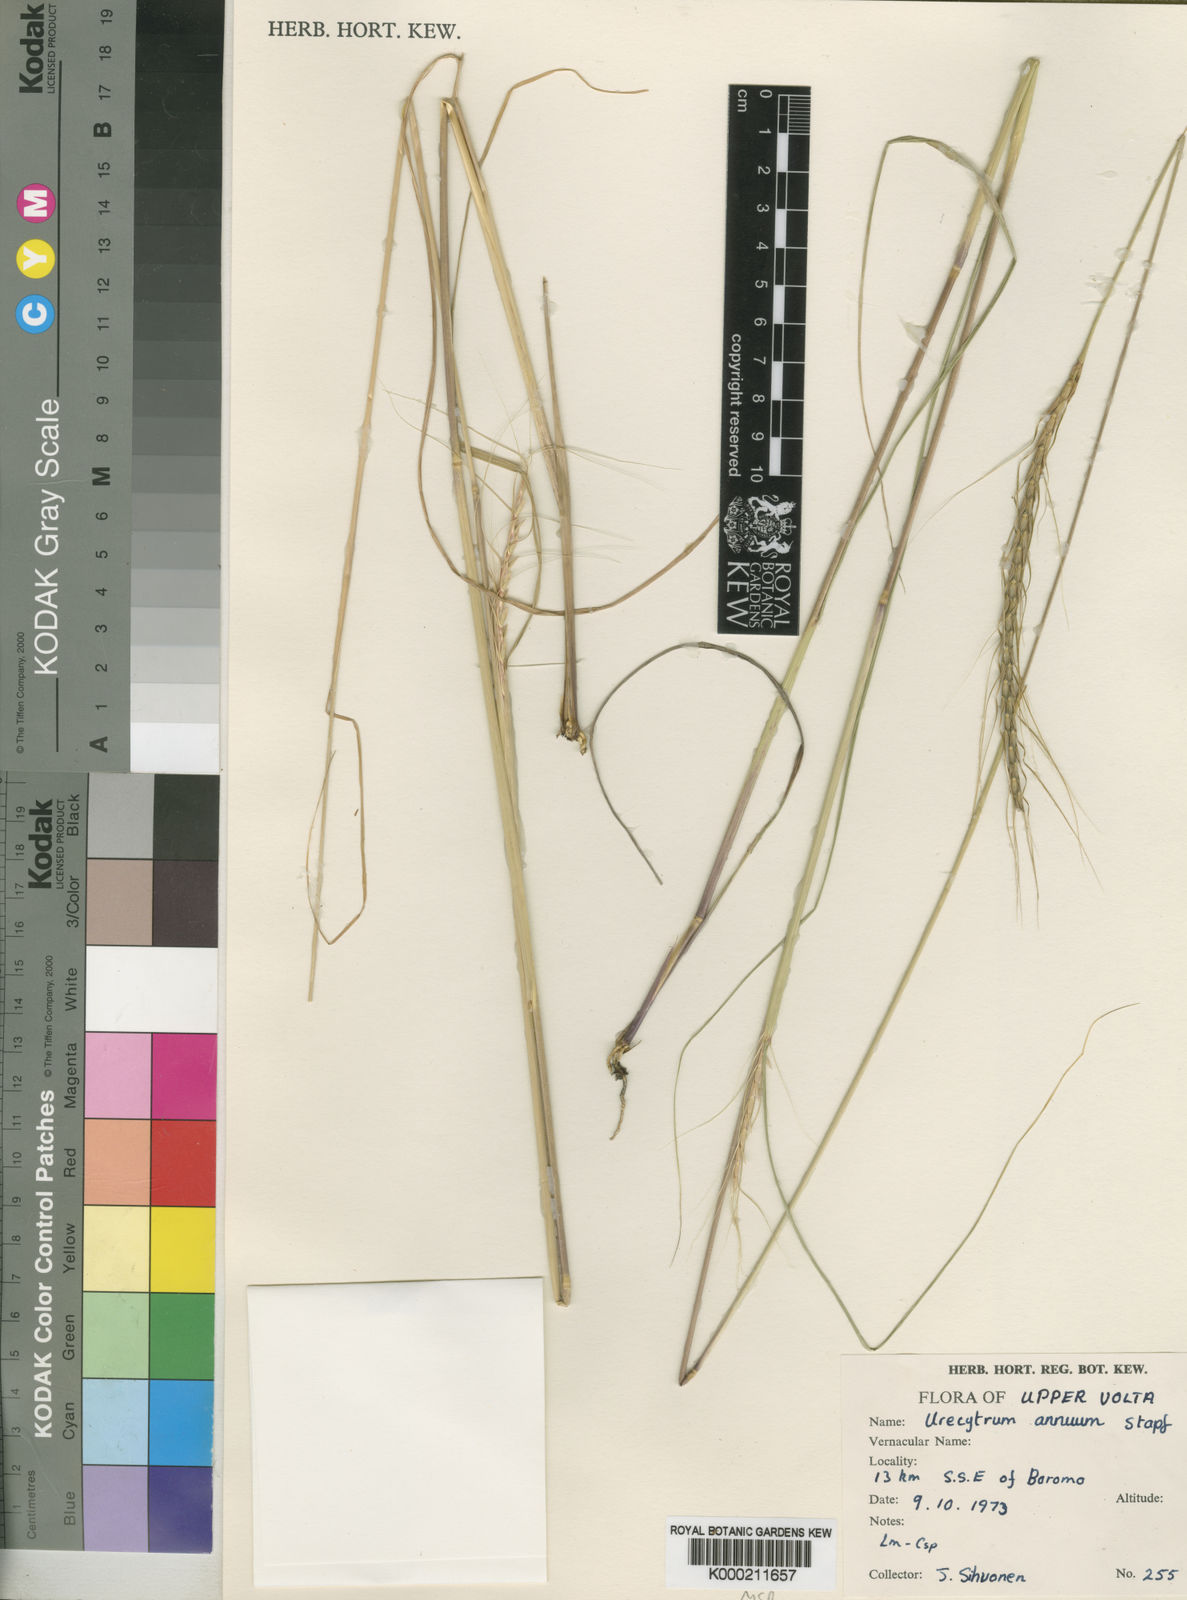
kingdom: Plantae
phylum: Tracheophyta
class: Liliopsida
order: Poales
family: Poaceae
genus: Urelytrum
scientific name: Urelytrum annuum
